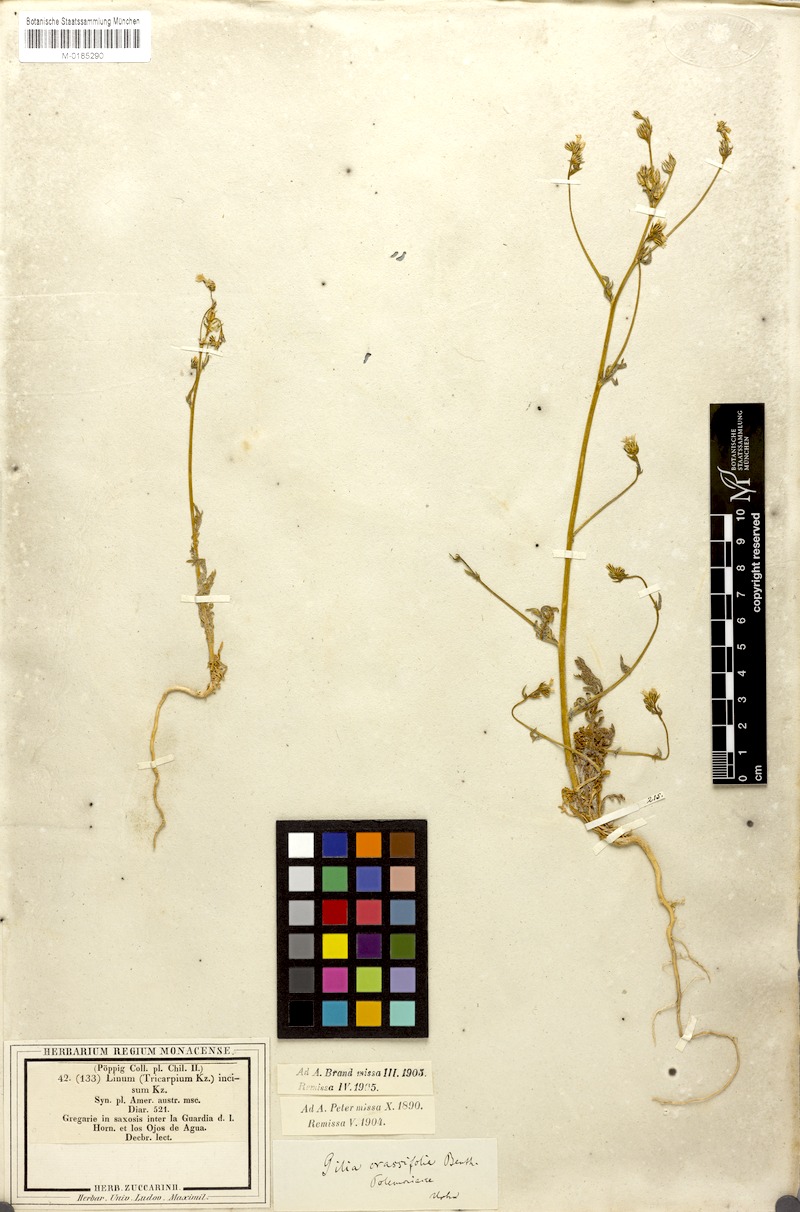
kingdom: Plantae
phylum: Tracheophyta
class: Magnoliopsida
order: Ericales
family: Polemoniaceae
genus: Gilia
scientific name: Gilia crassifolia
